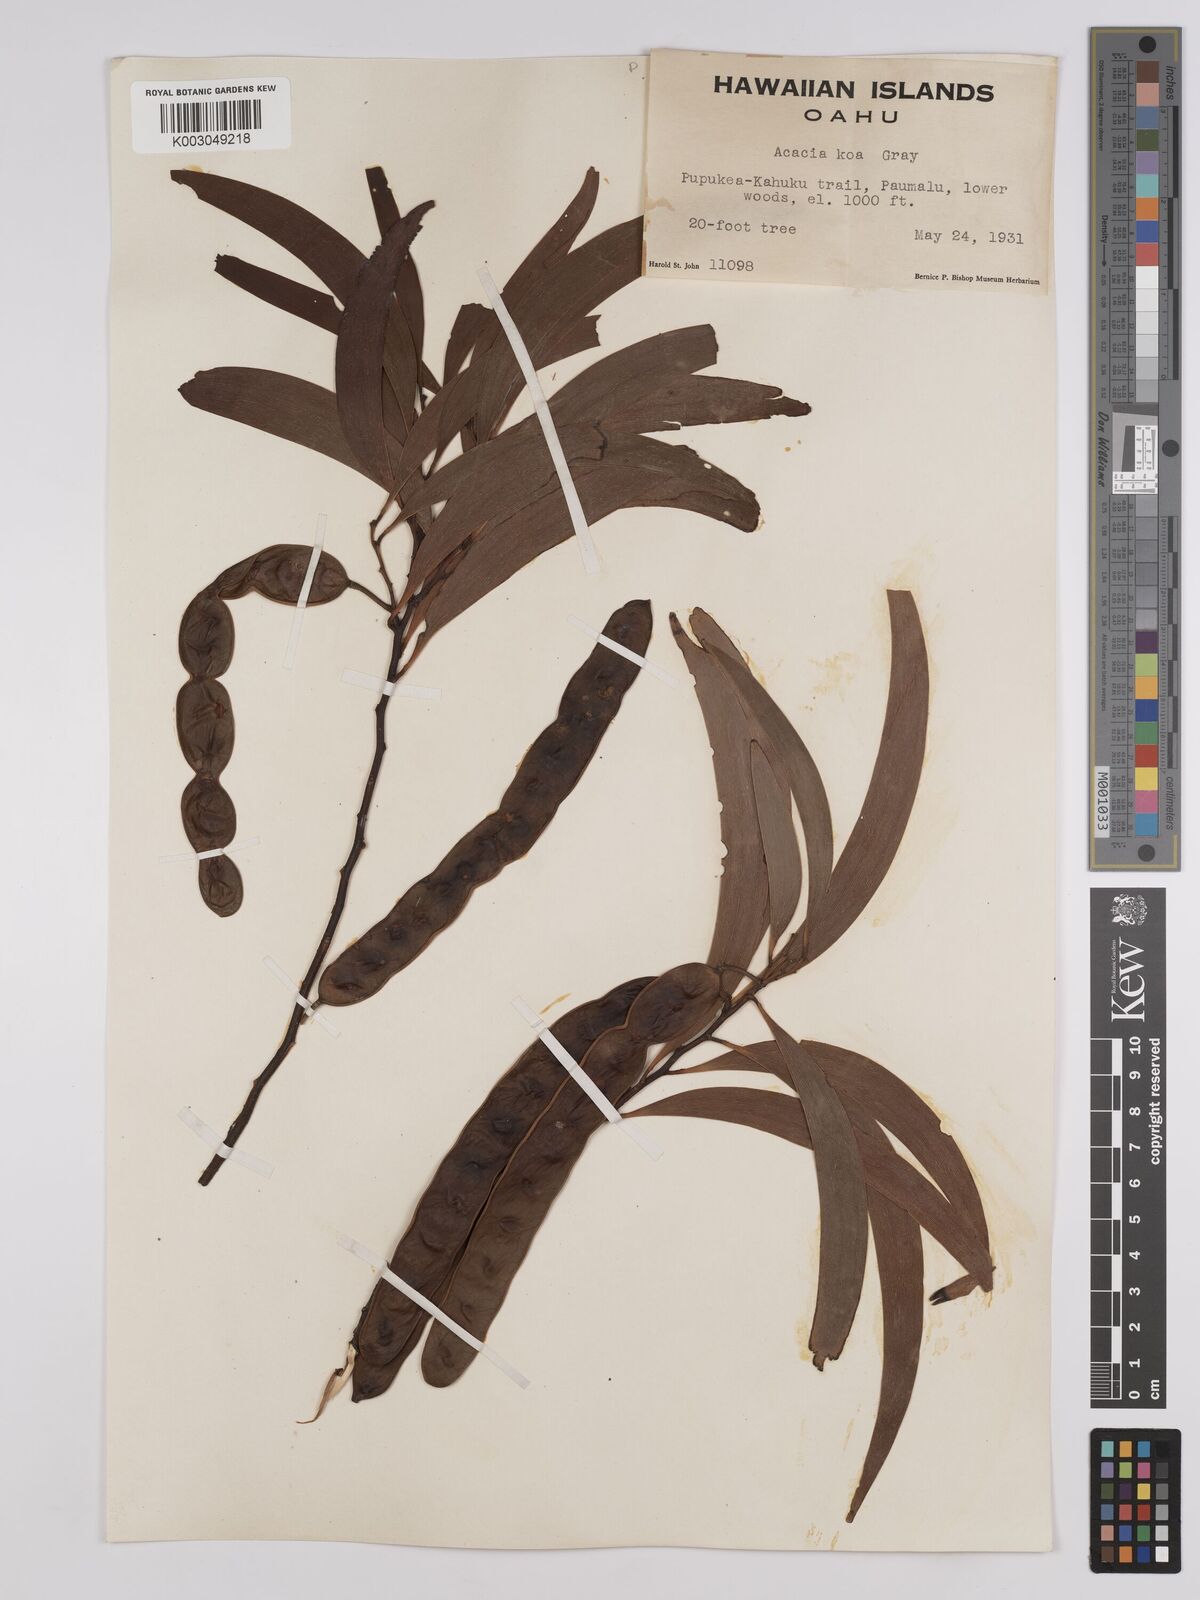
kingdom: Plantae
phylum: Tracheophyta
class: Magnoliopsida
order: Fabales
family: Fabaceae
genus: Acacia
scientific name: Acacia koa
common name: Gray koa
